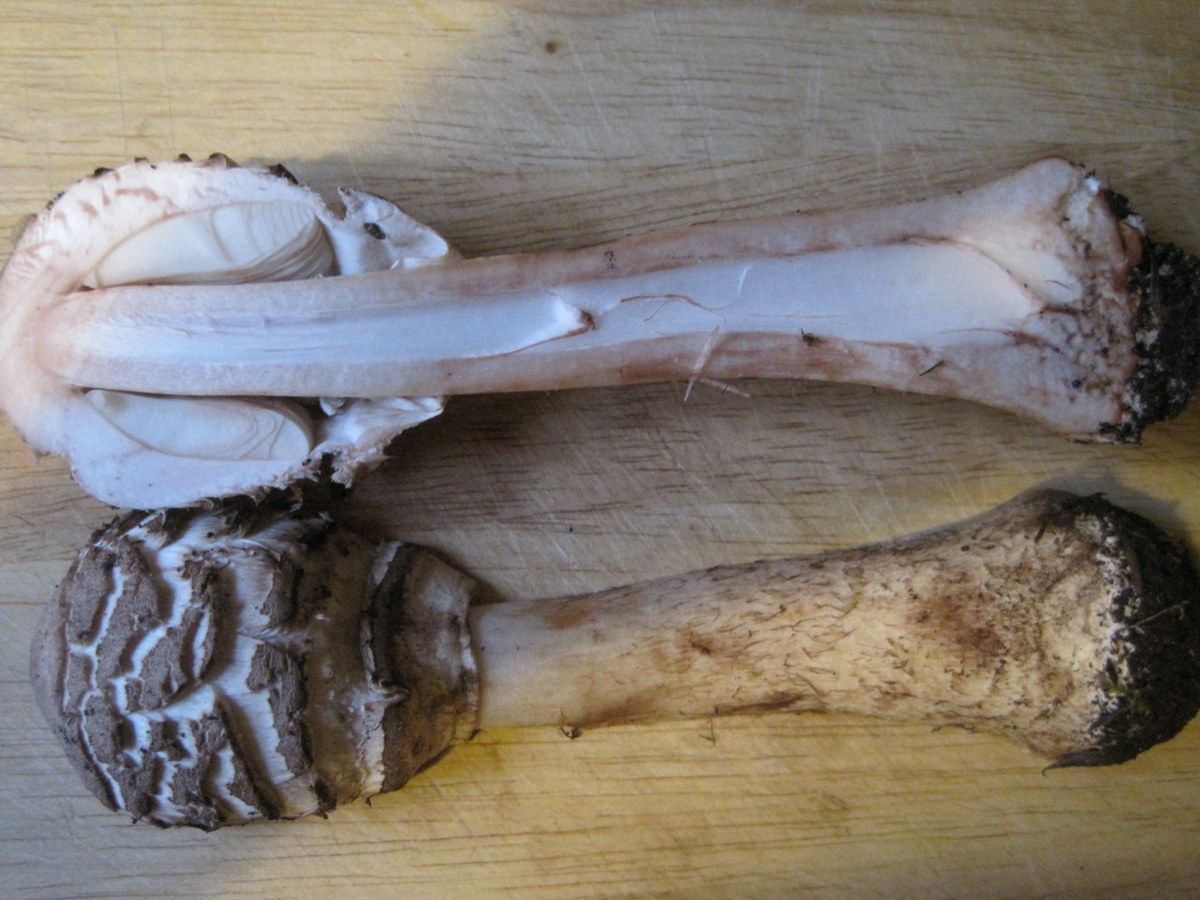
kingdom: Fungi
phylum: Basidiomycota
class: Agaricomycetes
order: Agaricales
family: Agaricaceae
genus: Chlorophyllum
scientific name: Chlorophyllum rhacodes
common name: ægte rabarberhat
